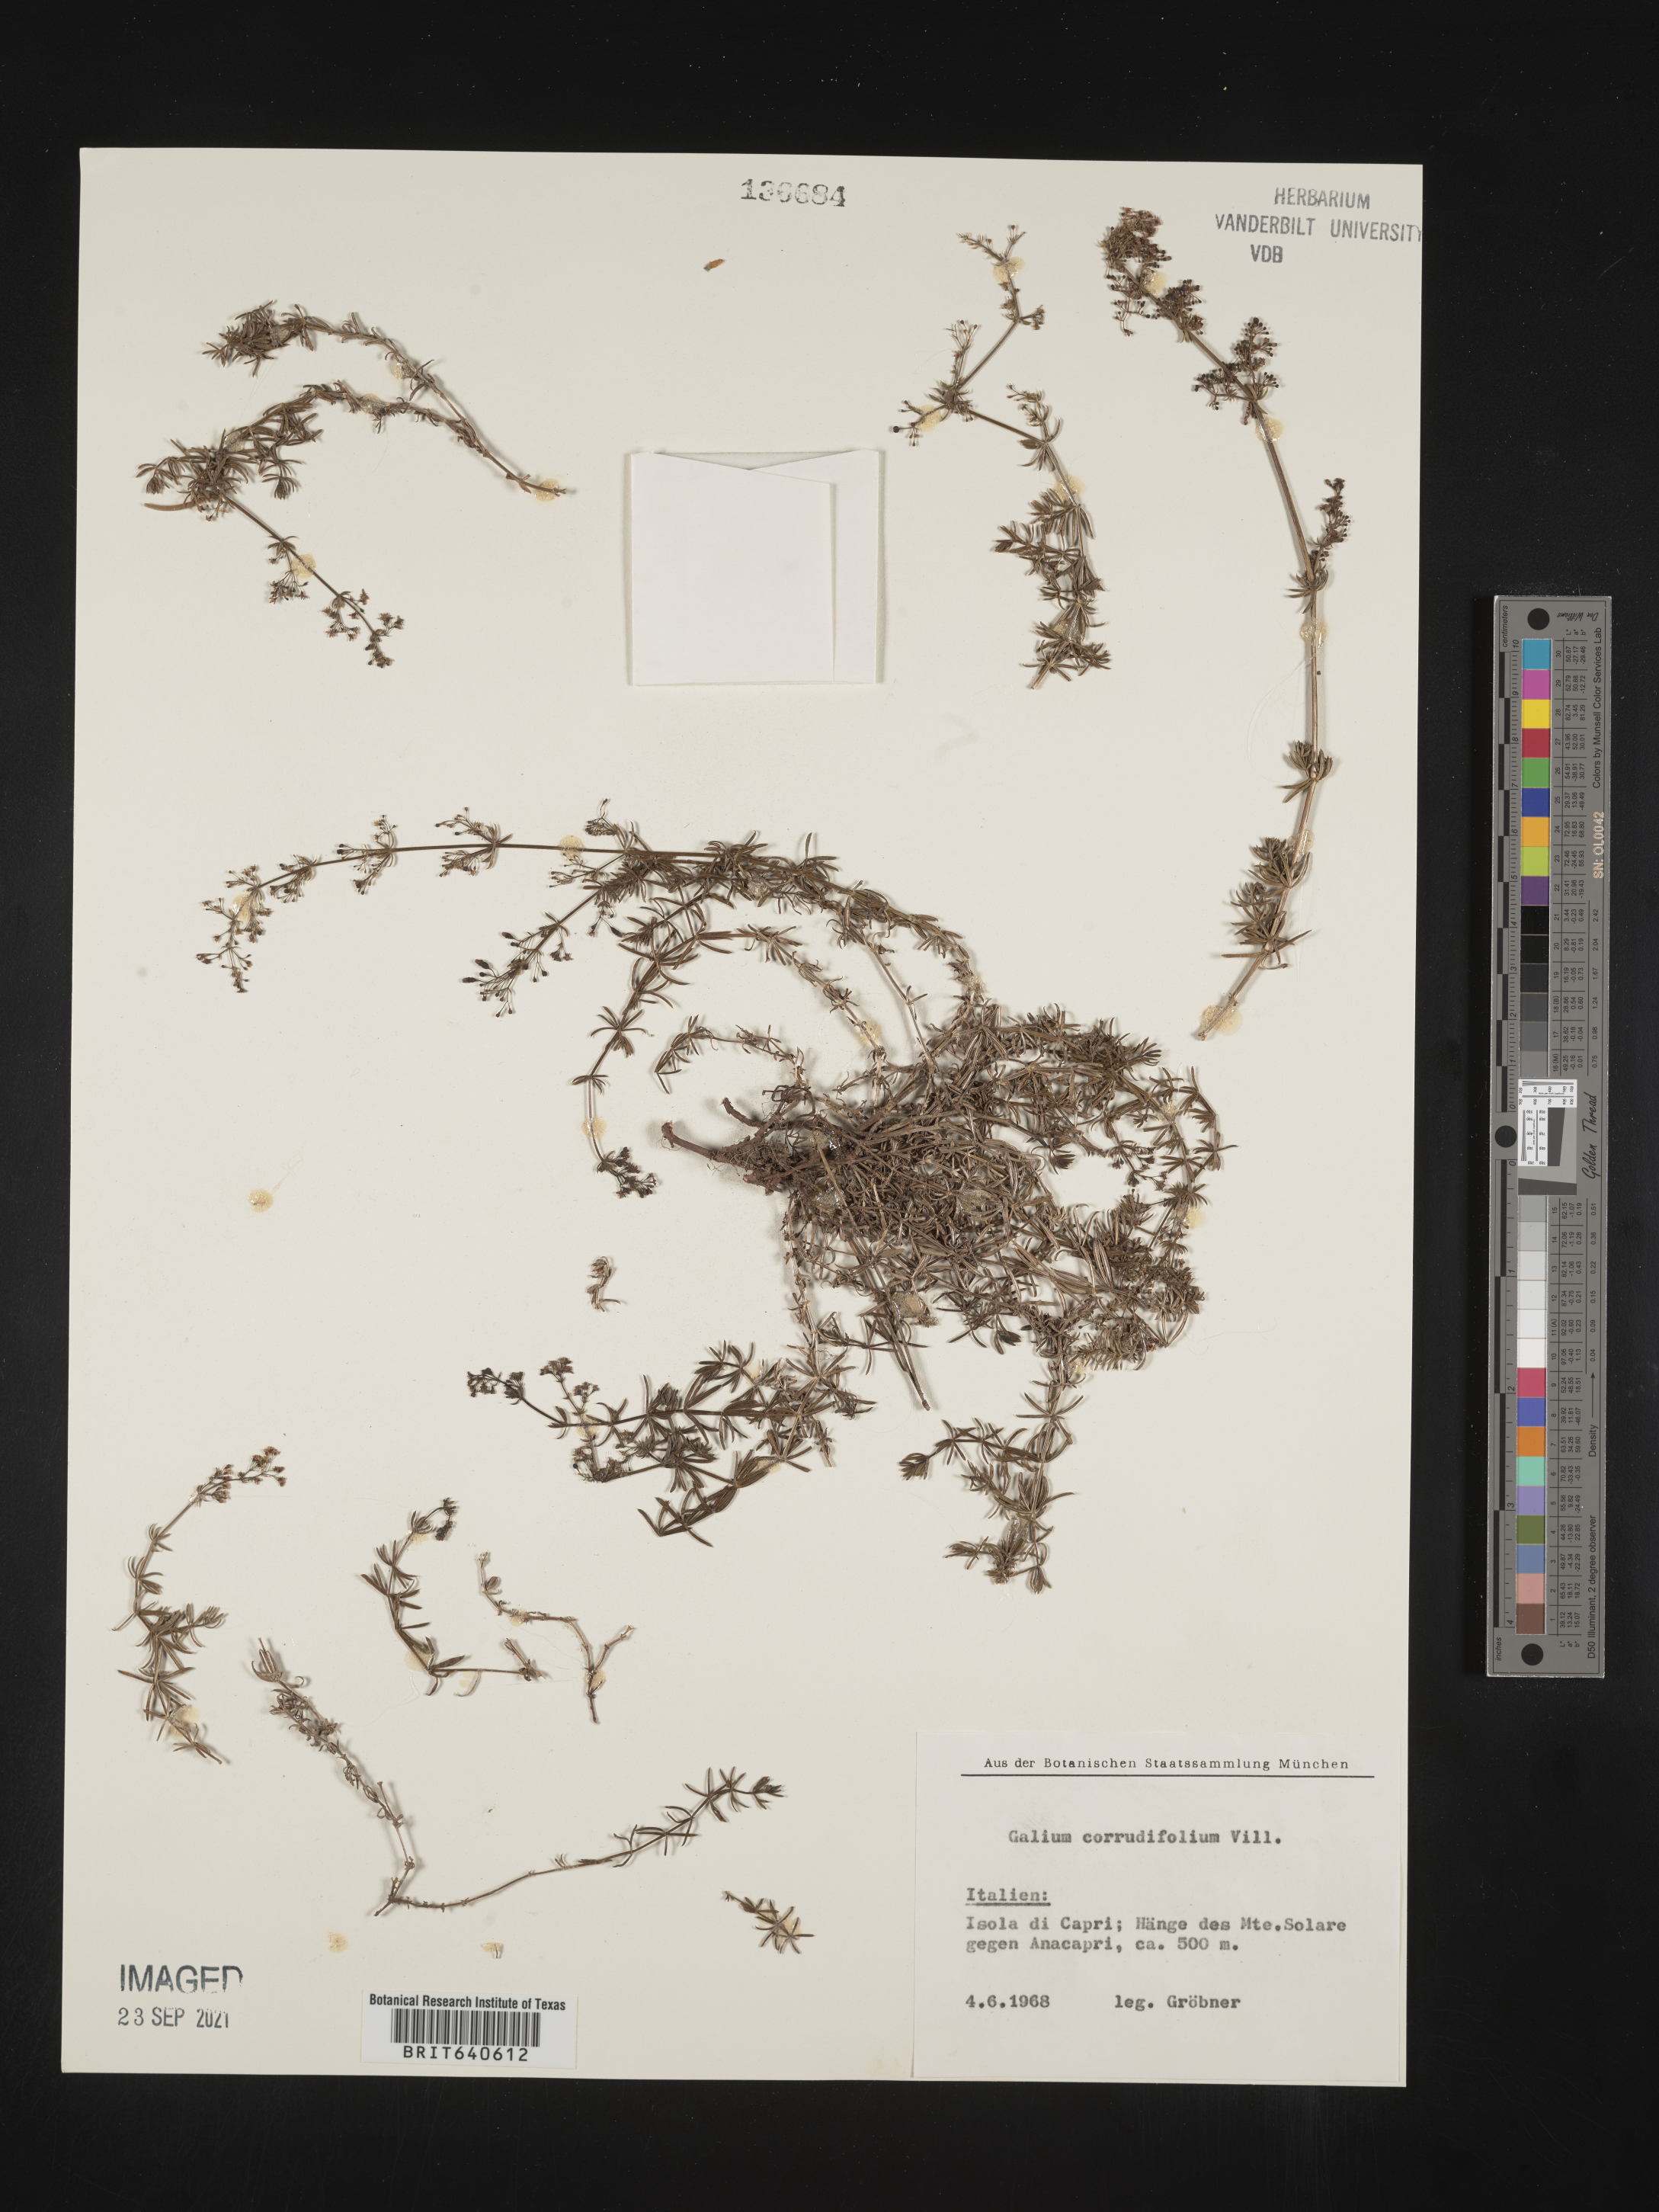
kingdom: Plantae
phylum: Tracheophyta
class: Magnoliopsida
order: Gentianales
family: Rubiaceae
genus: Galium
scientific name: Galium
